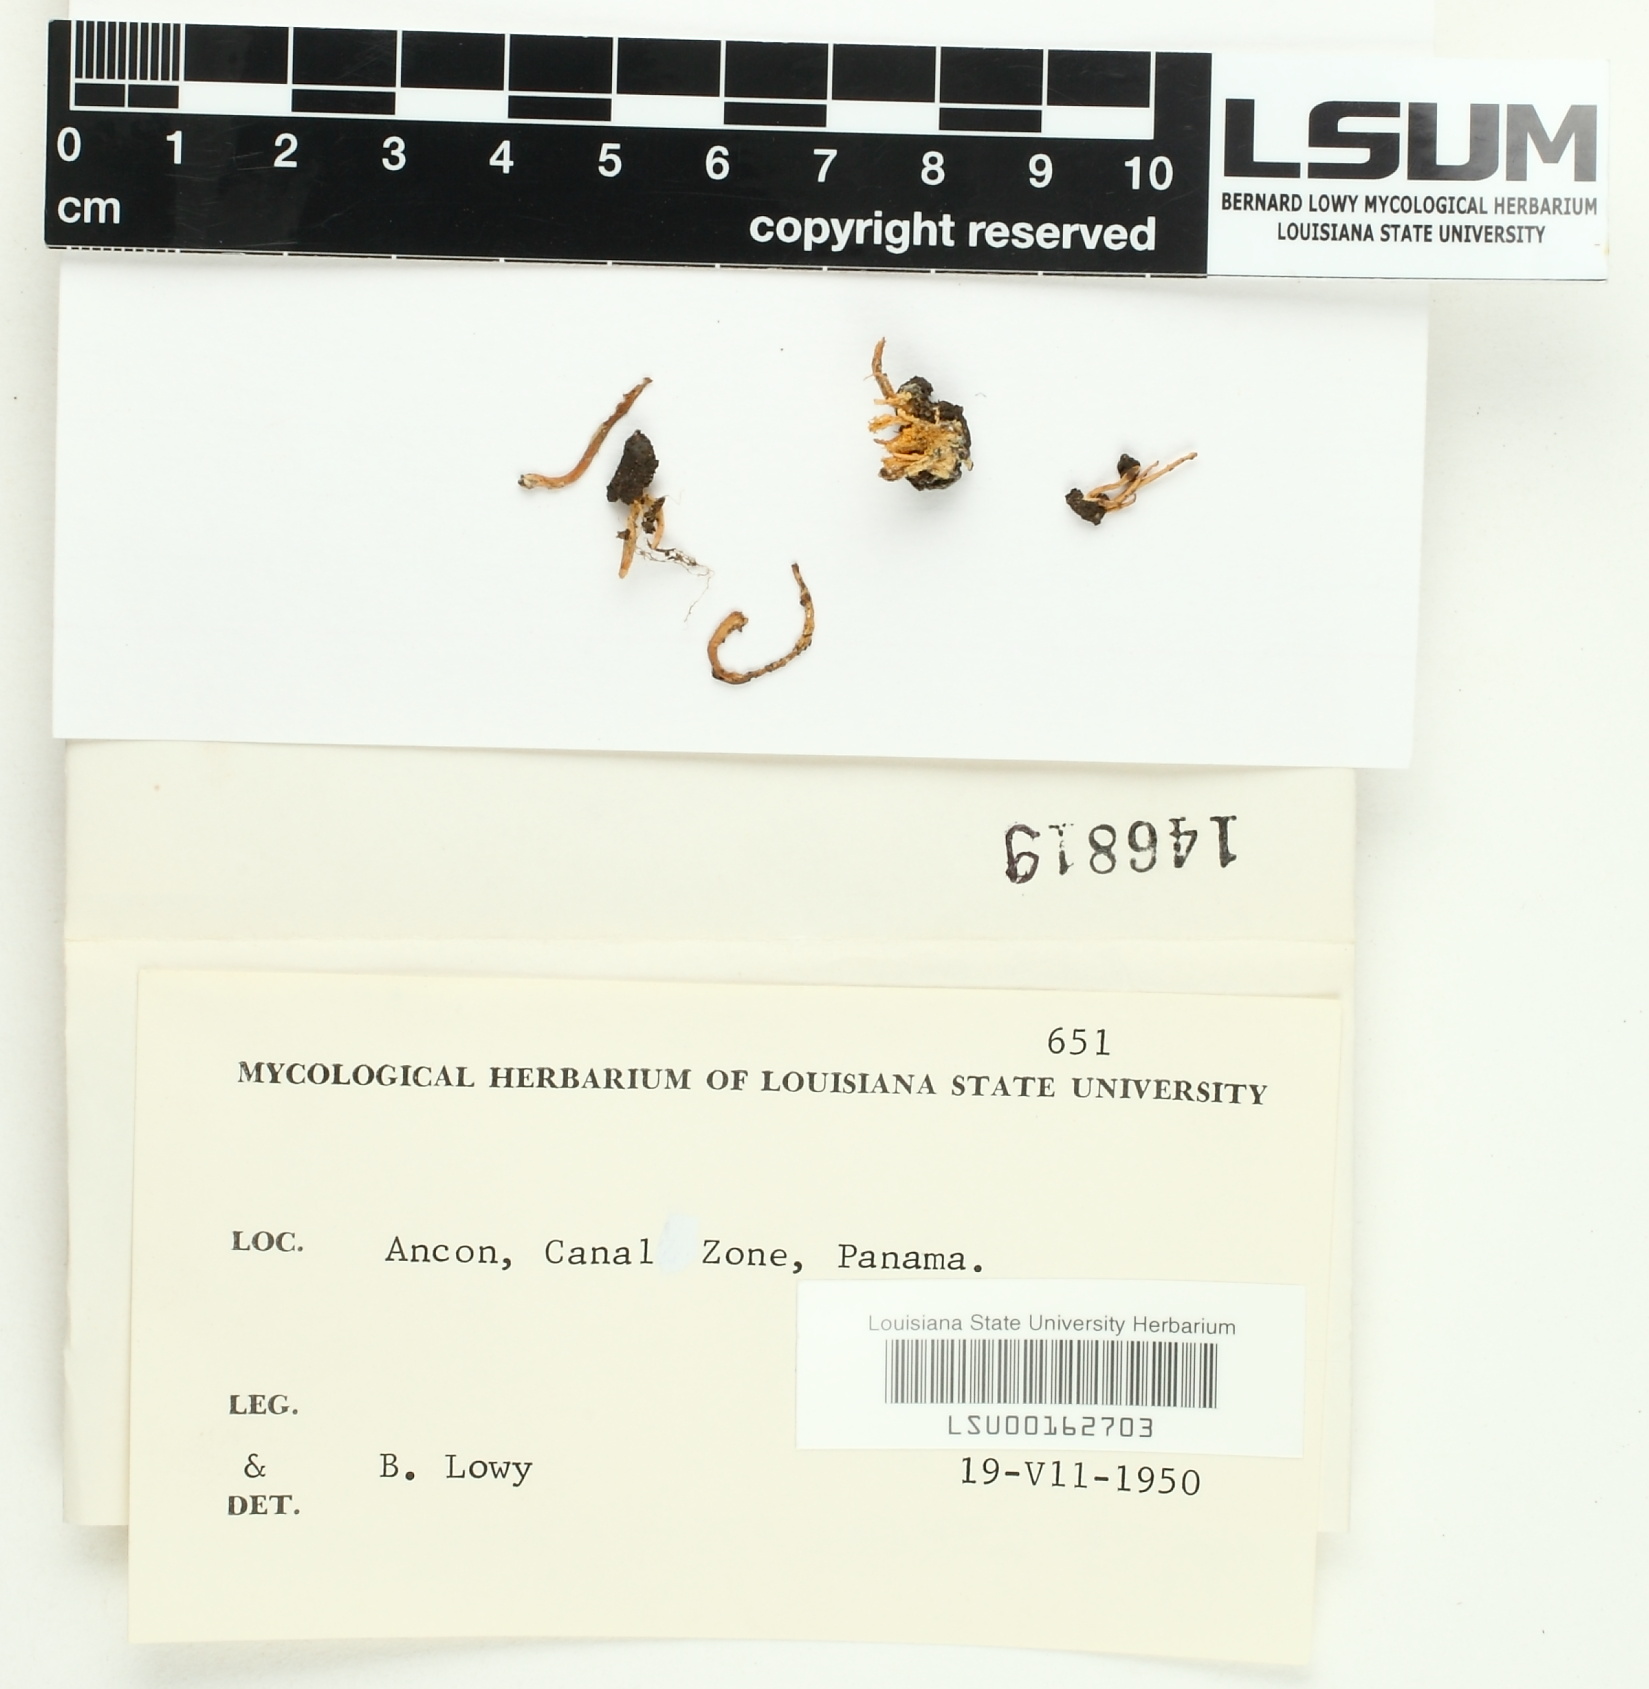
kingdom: Fungi
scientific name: Fungi
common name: Fungi
